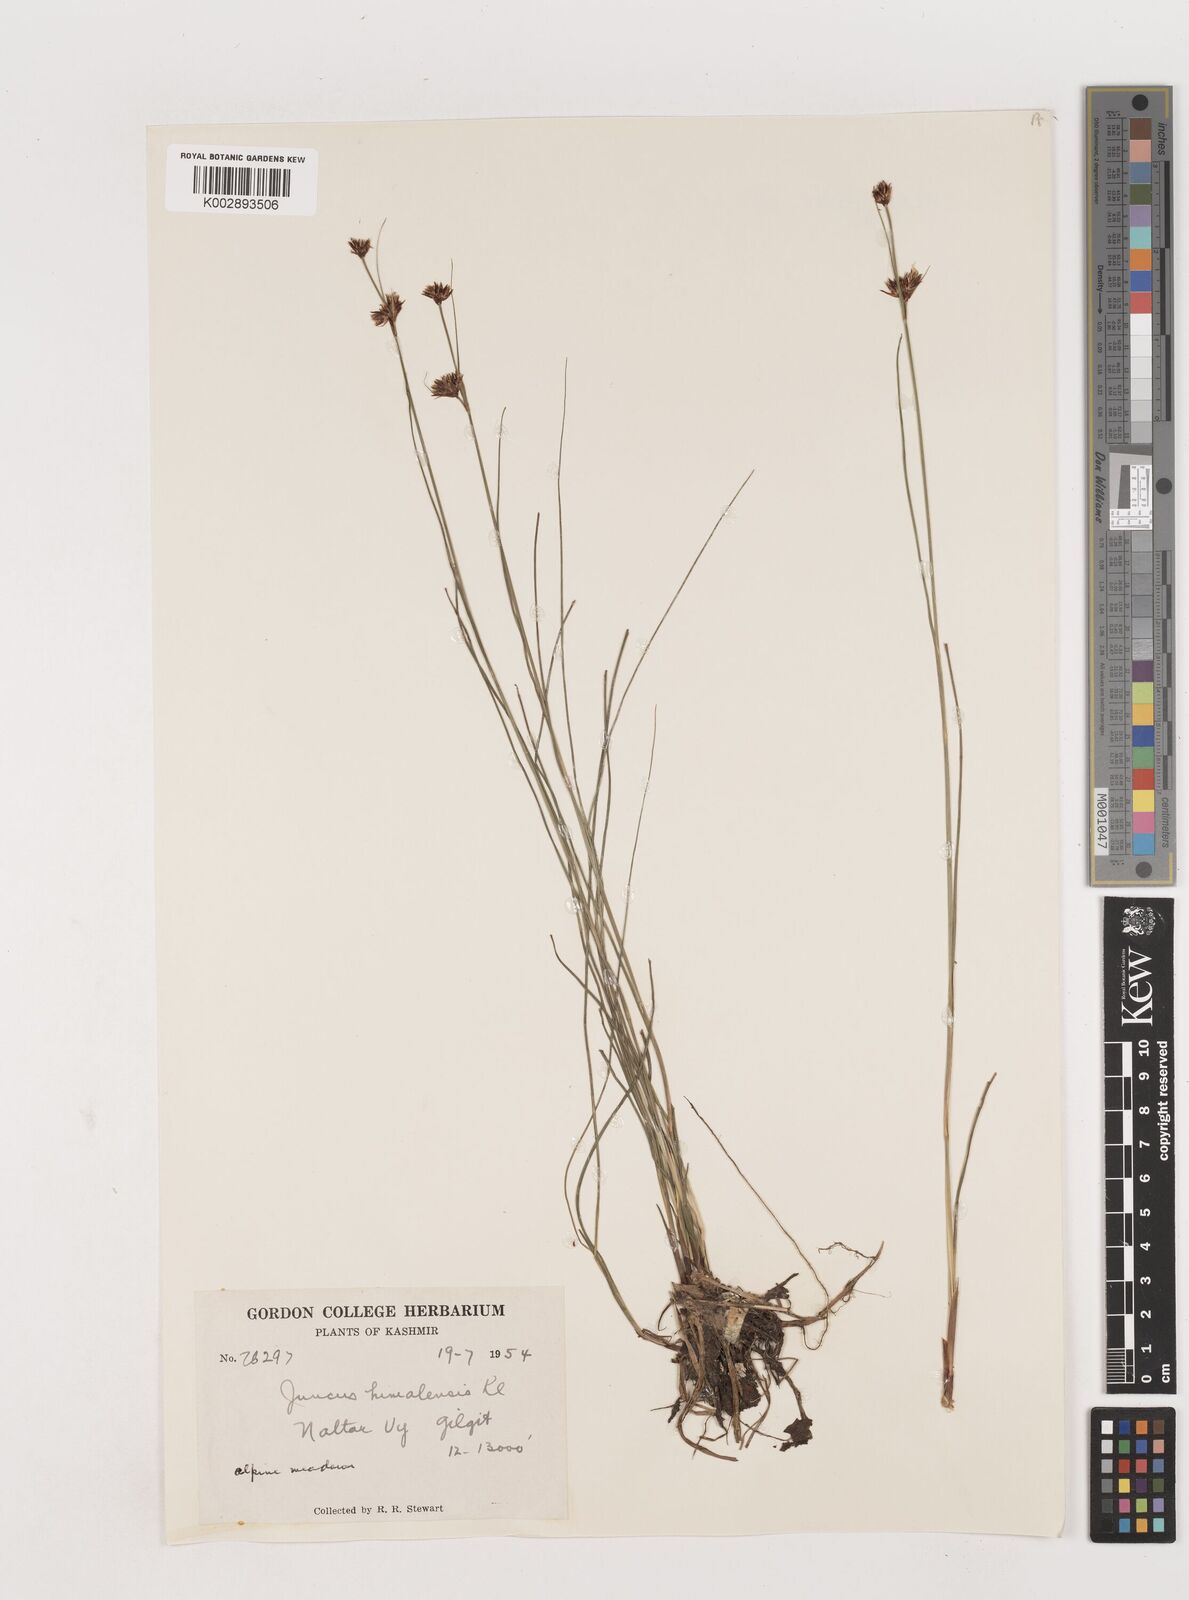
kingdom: Plantae
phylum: Tracheophyta
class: Liliopsida
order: Poales
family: Juncaceae
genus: Juncus
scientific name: Juncus himalensis
